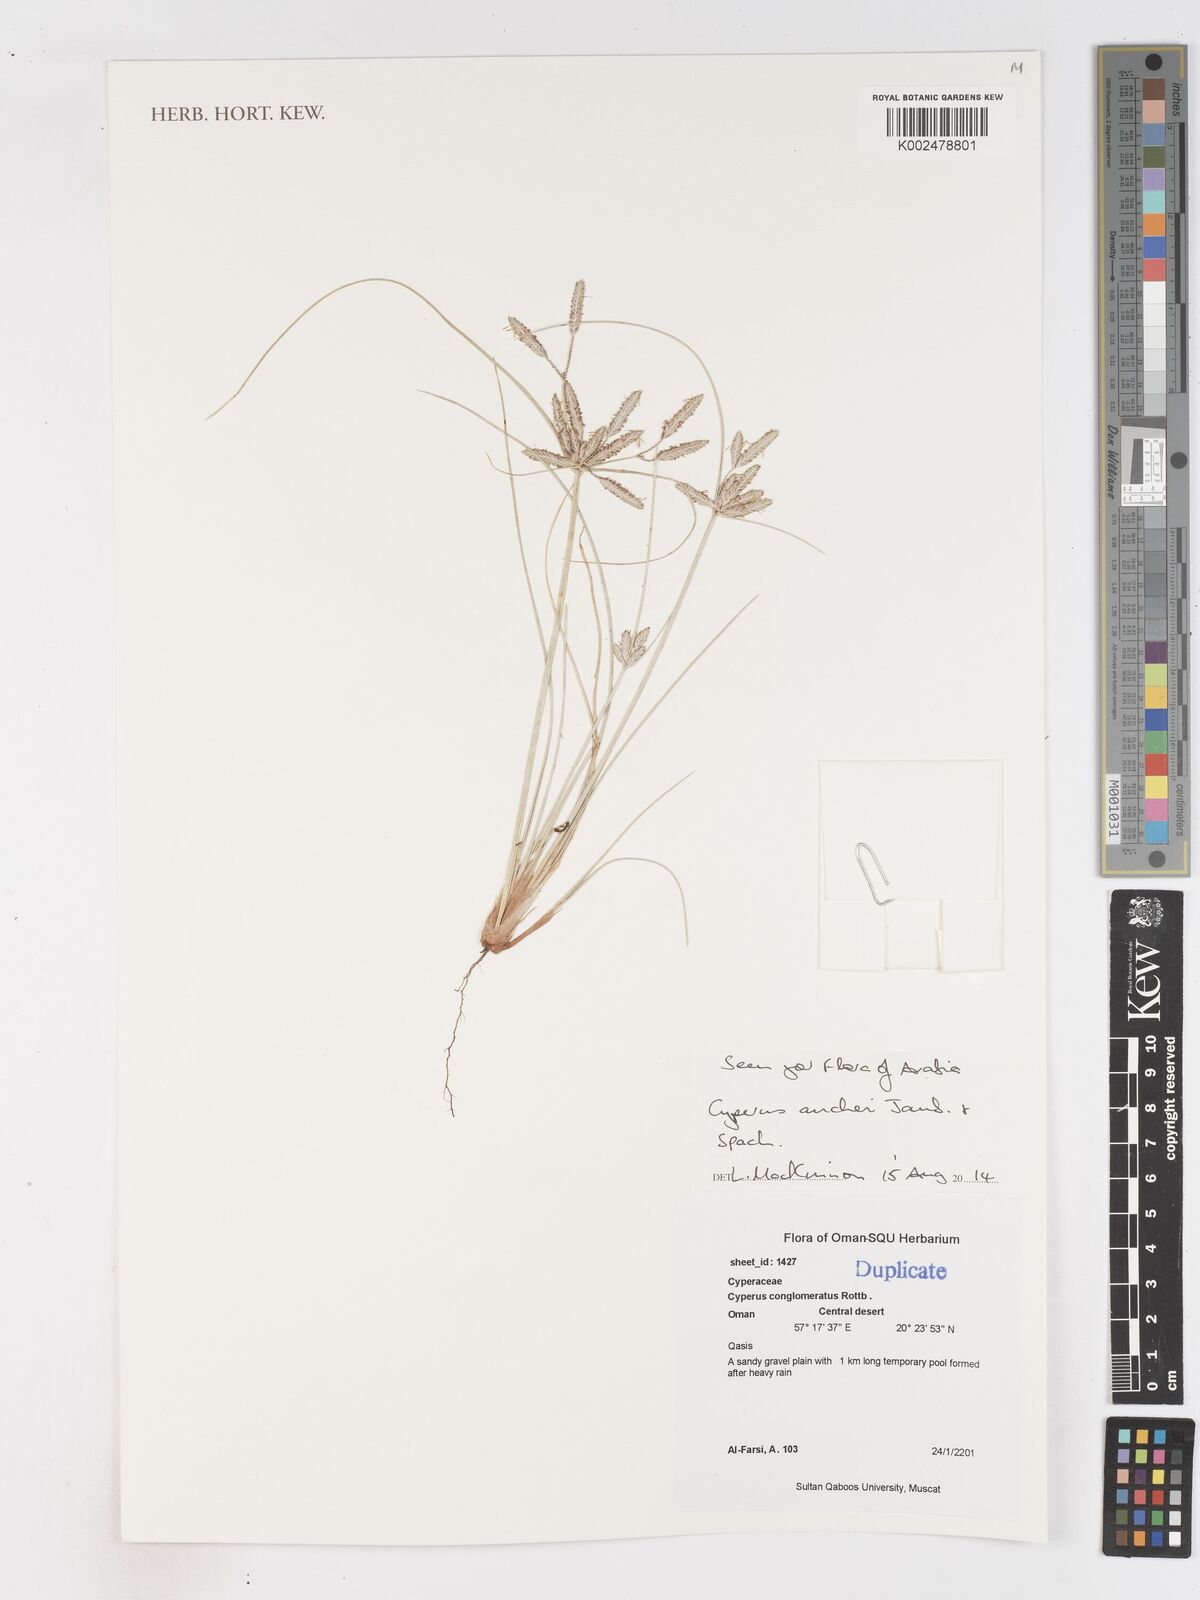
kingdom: Plantae
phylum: Tracheophyta
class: Liliopsida
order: Poales
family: Cyperaceae
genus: Cyperus
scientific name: Cyperus aucheri
